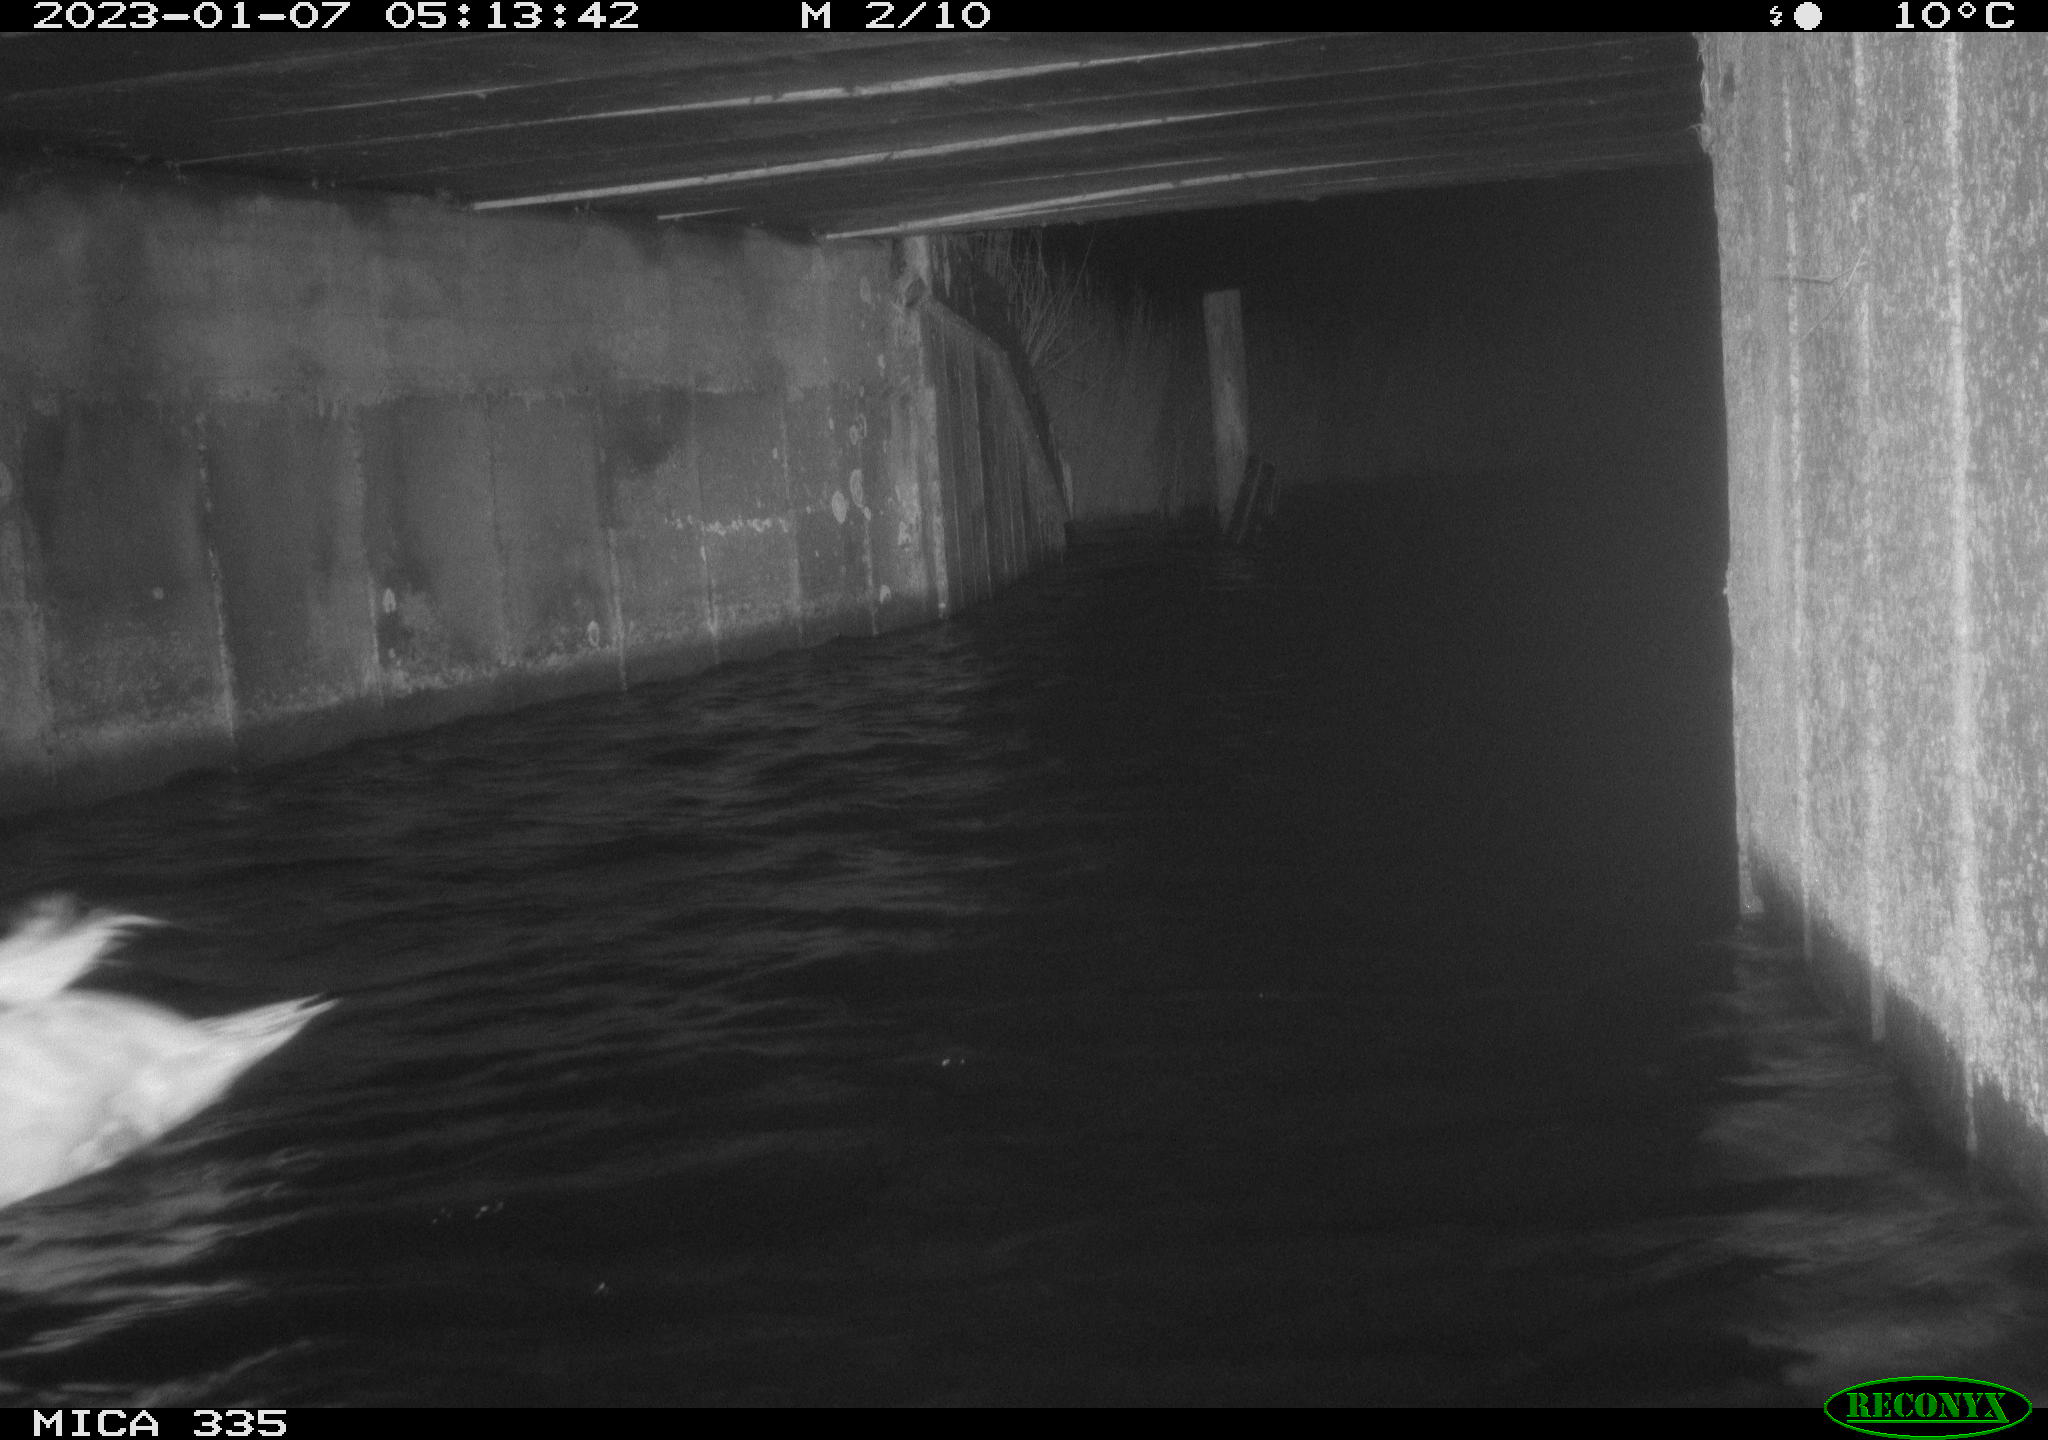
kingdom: Animalia
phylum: Chordata
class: Aves
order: Anseriformes
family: Anatidae
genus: Cygnus
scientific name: Cygnus olor
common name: Mute swan
